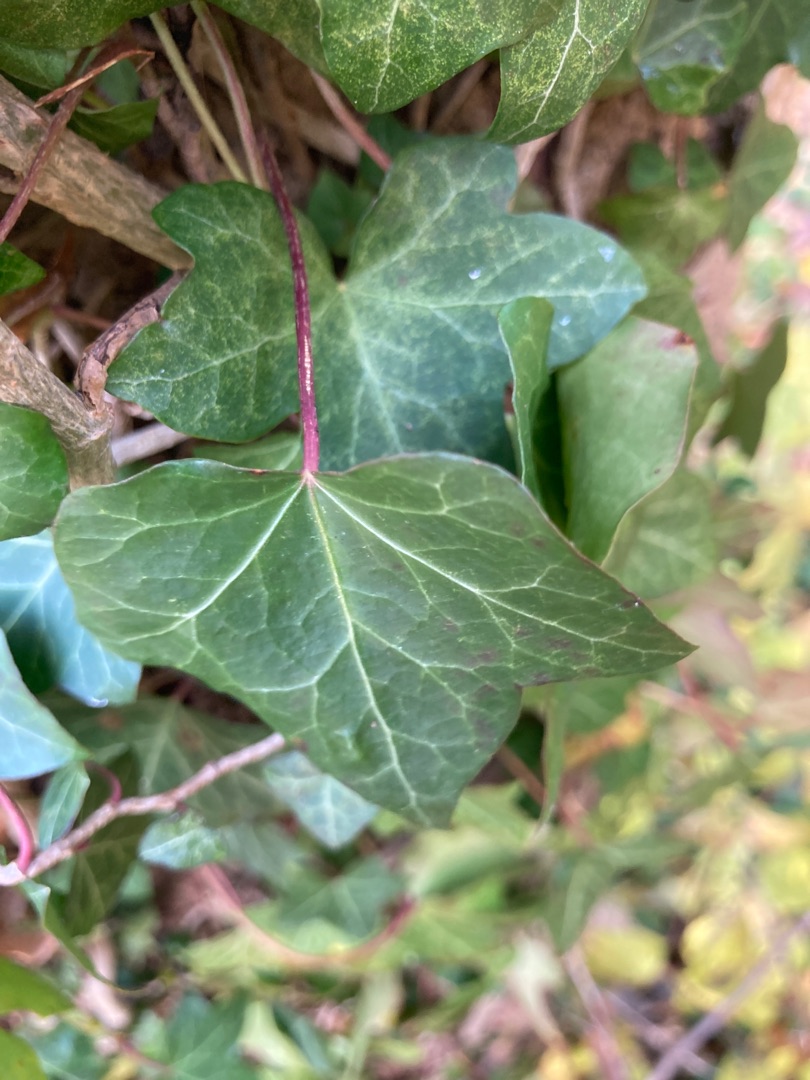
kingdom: Plantae
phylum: Tracheophyta
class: Magnoliopsida
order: Apiales
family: Araliaceae
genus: Hedera
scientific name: Hedera hibernica
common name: Irsk vedbend
